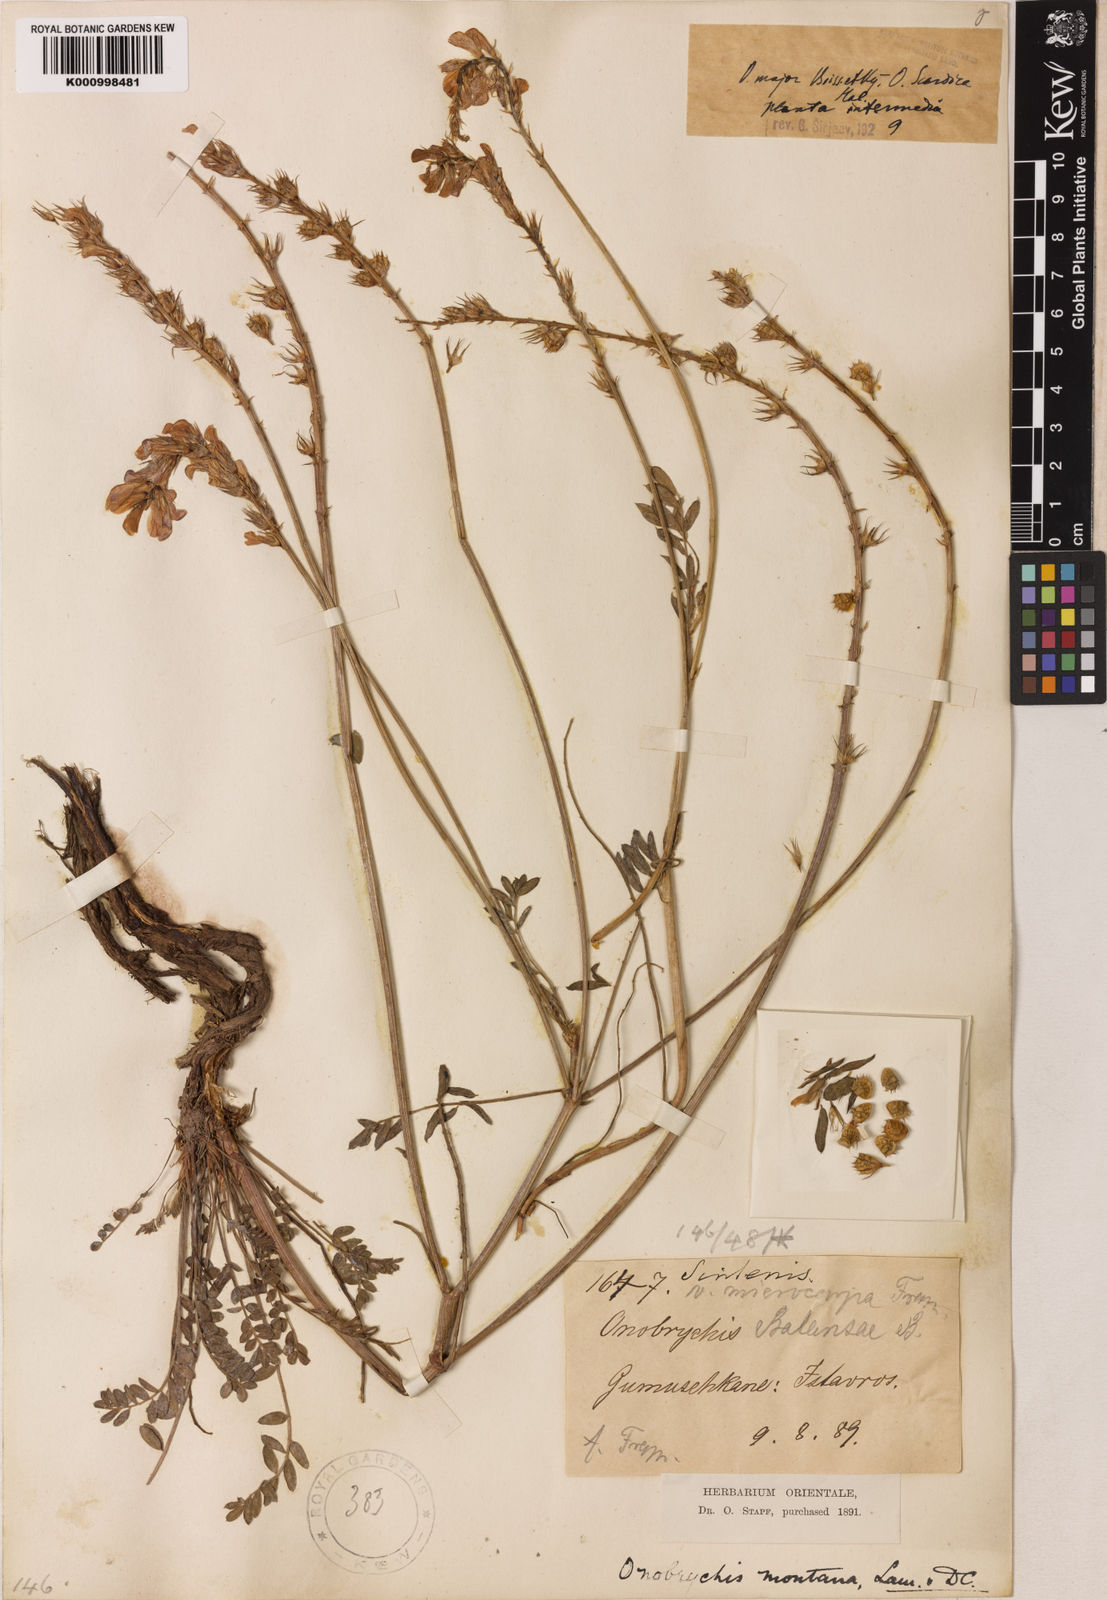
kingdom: Plantae
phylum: Tracheophyta
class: Magnoliopsida
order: Fabales
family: Fabaceae
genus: Onobrychis
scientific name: Onobrychis
